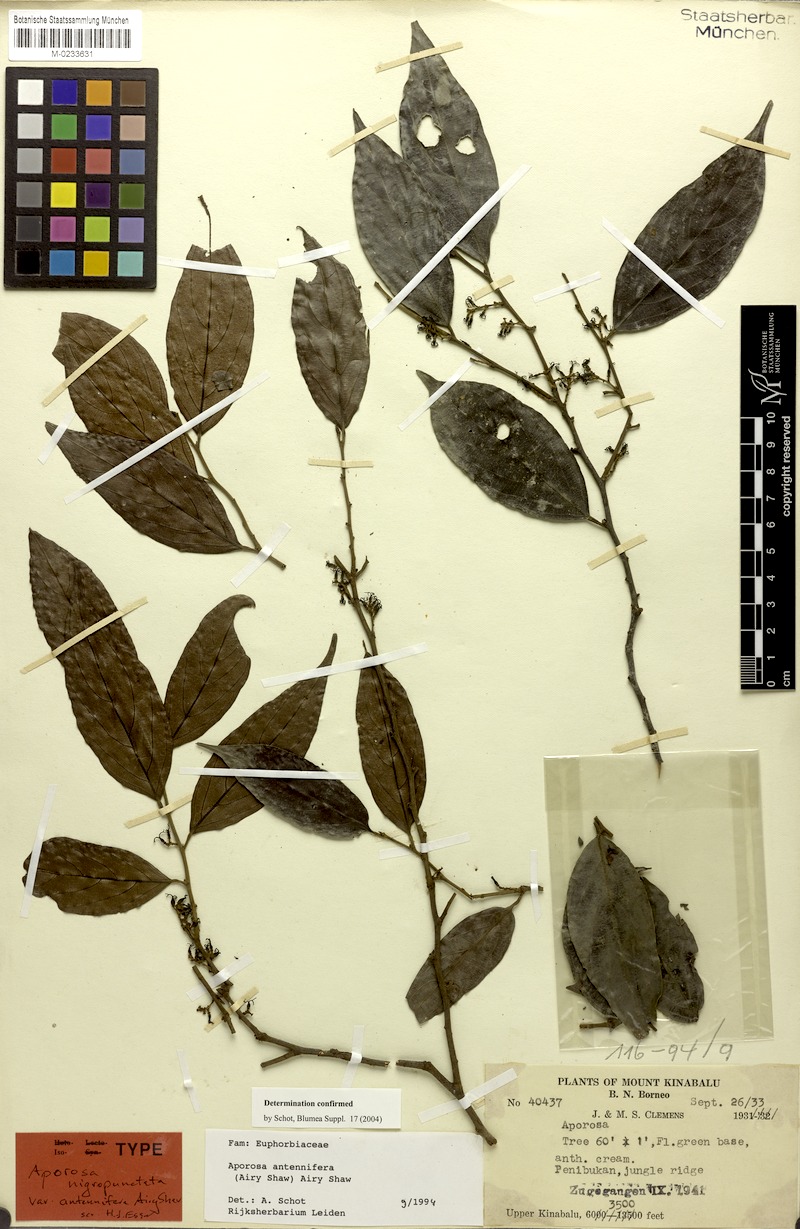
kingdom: Plantae
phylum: Tracheophyta
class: Magnoliopsida
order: Malpighiales
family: Phyllanthaceae
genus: Aporosa
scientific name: Aporosa antennifera
